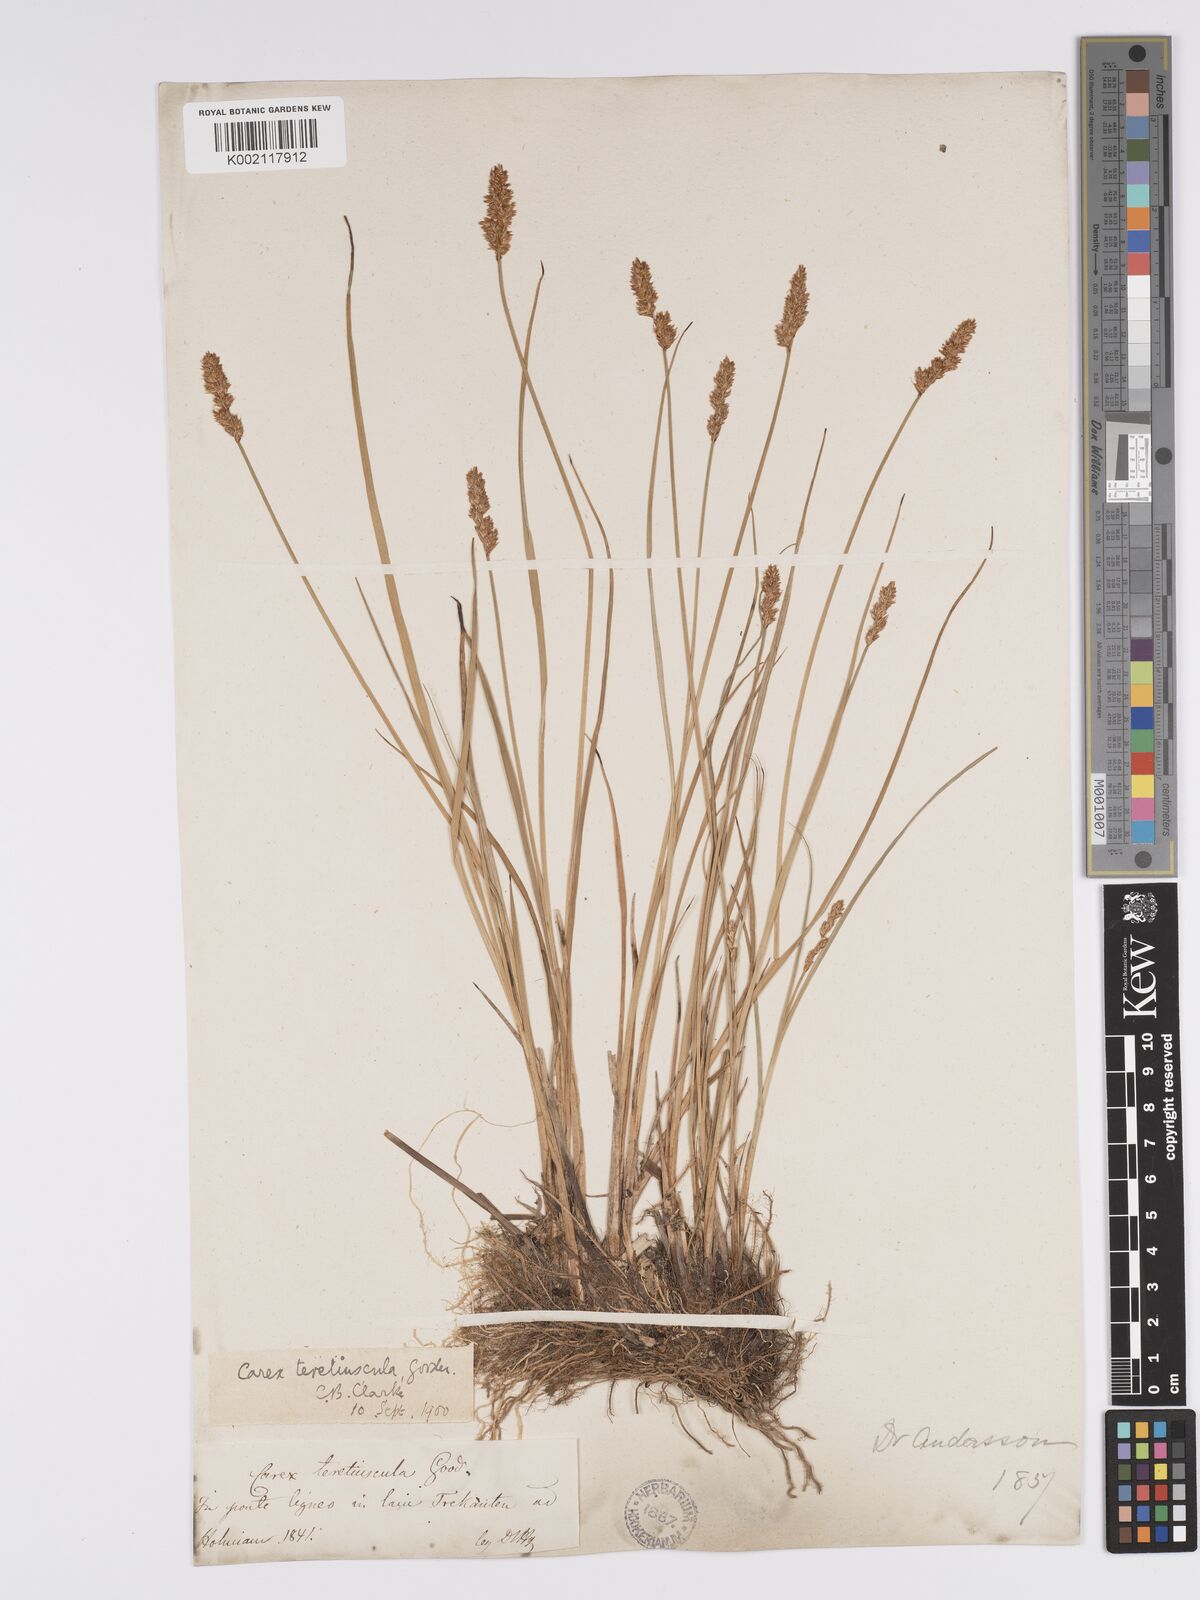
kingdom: Plantae
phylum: Tracheophyta
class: Liliopsida
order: Poales
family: Cyperaceae
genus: Carex
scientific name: Carex diandra
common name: Lesser tussock-sedge
